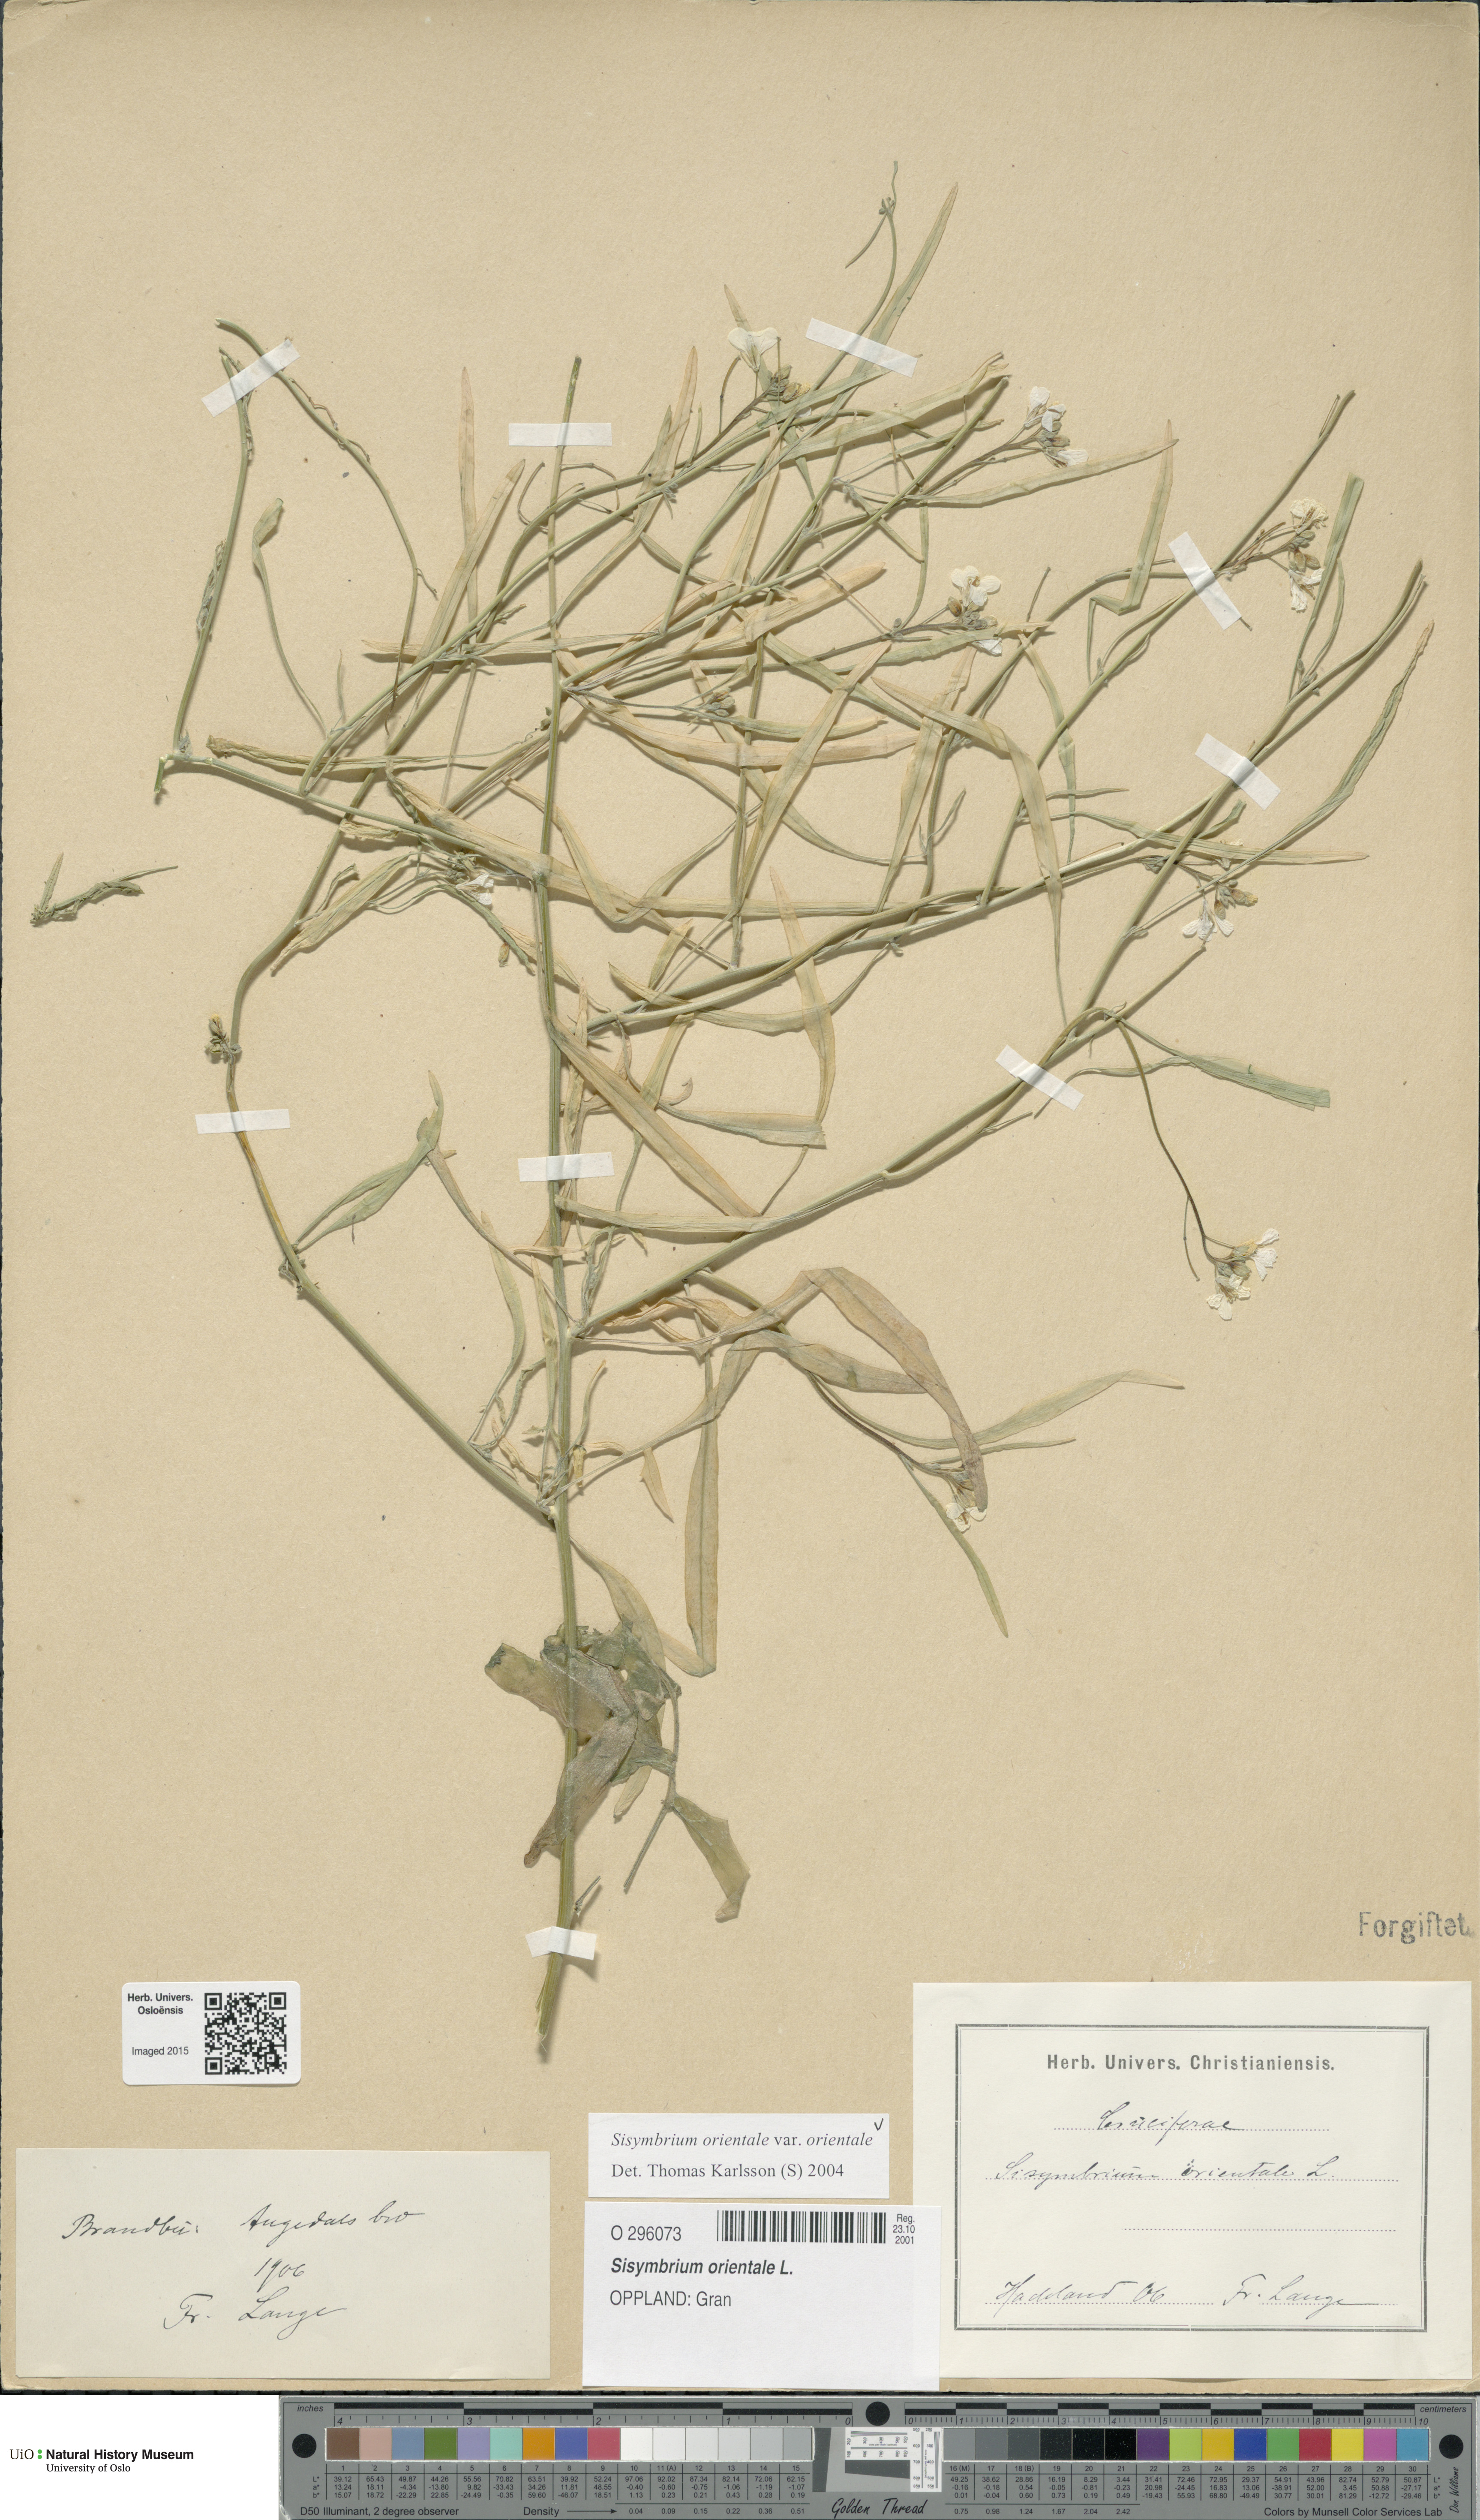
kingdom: Plantae
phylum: Tracheophyta
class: Magnoliopsida
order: Brassicales
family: Brassicaceae
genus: Sisymbrium
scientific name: Sisymbrium orientale
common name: Eastern rocket
